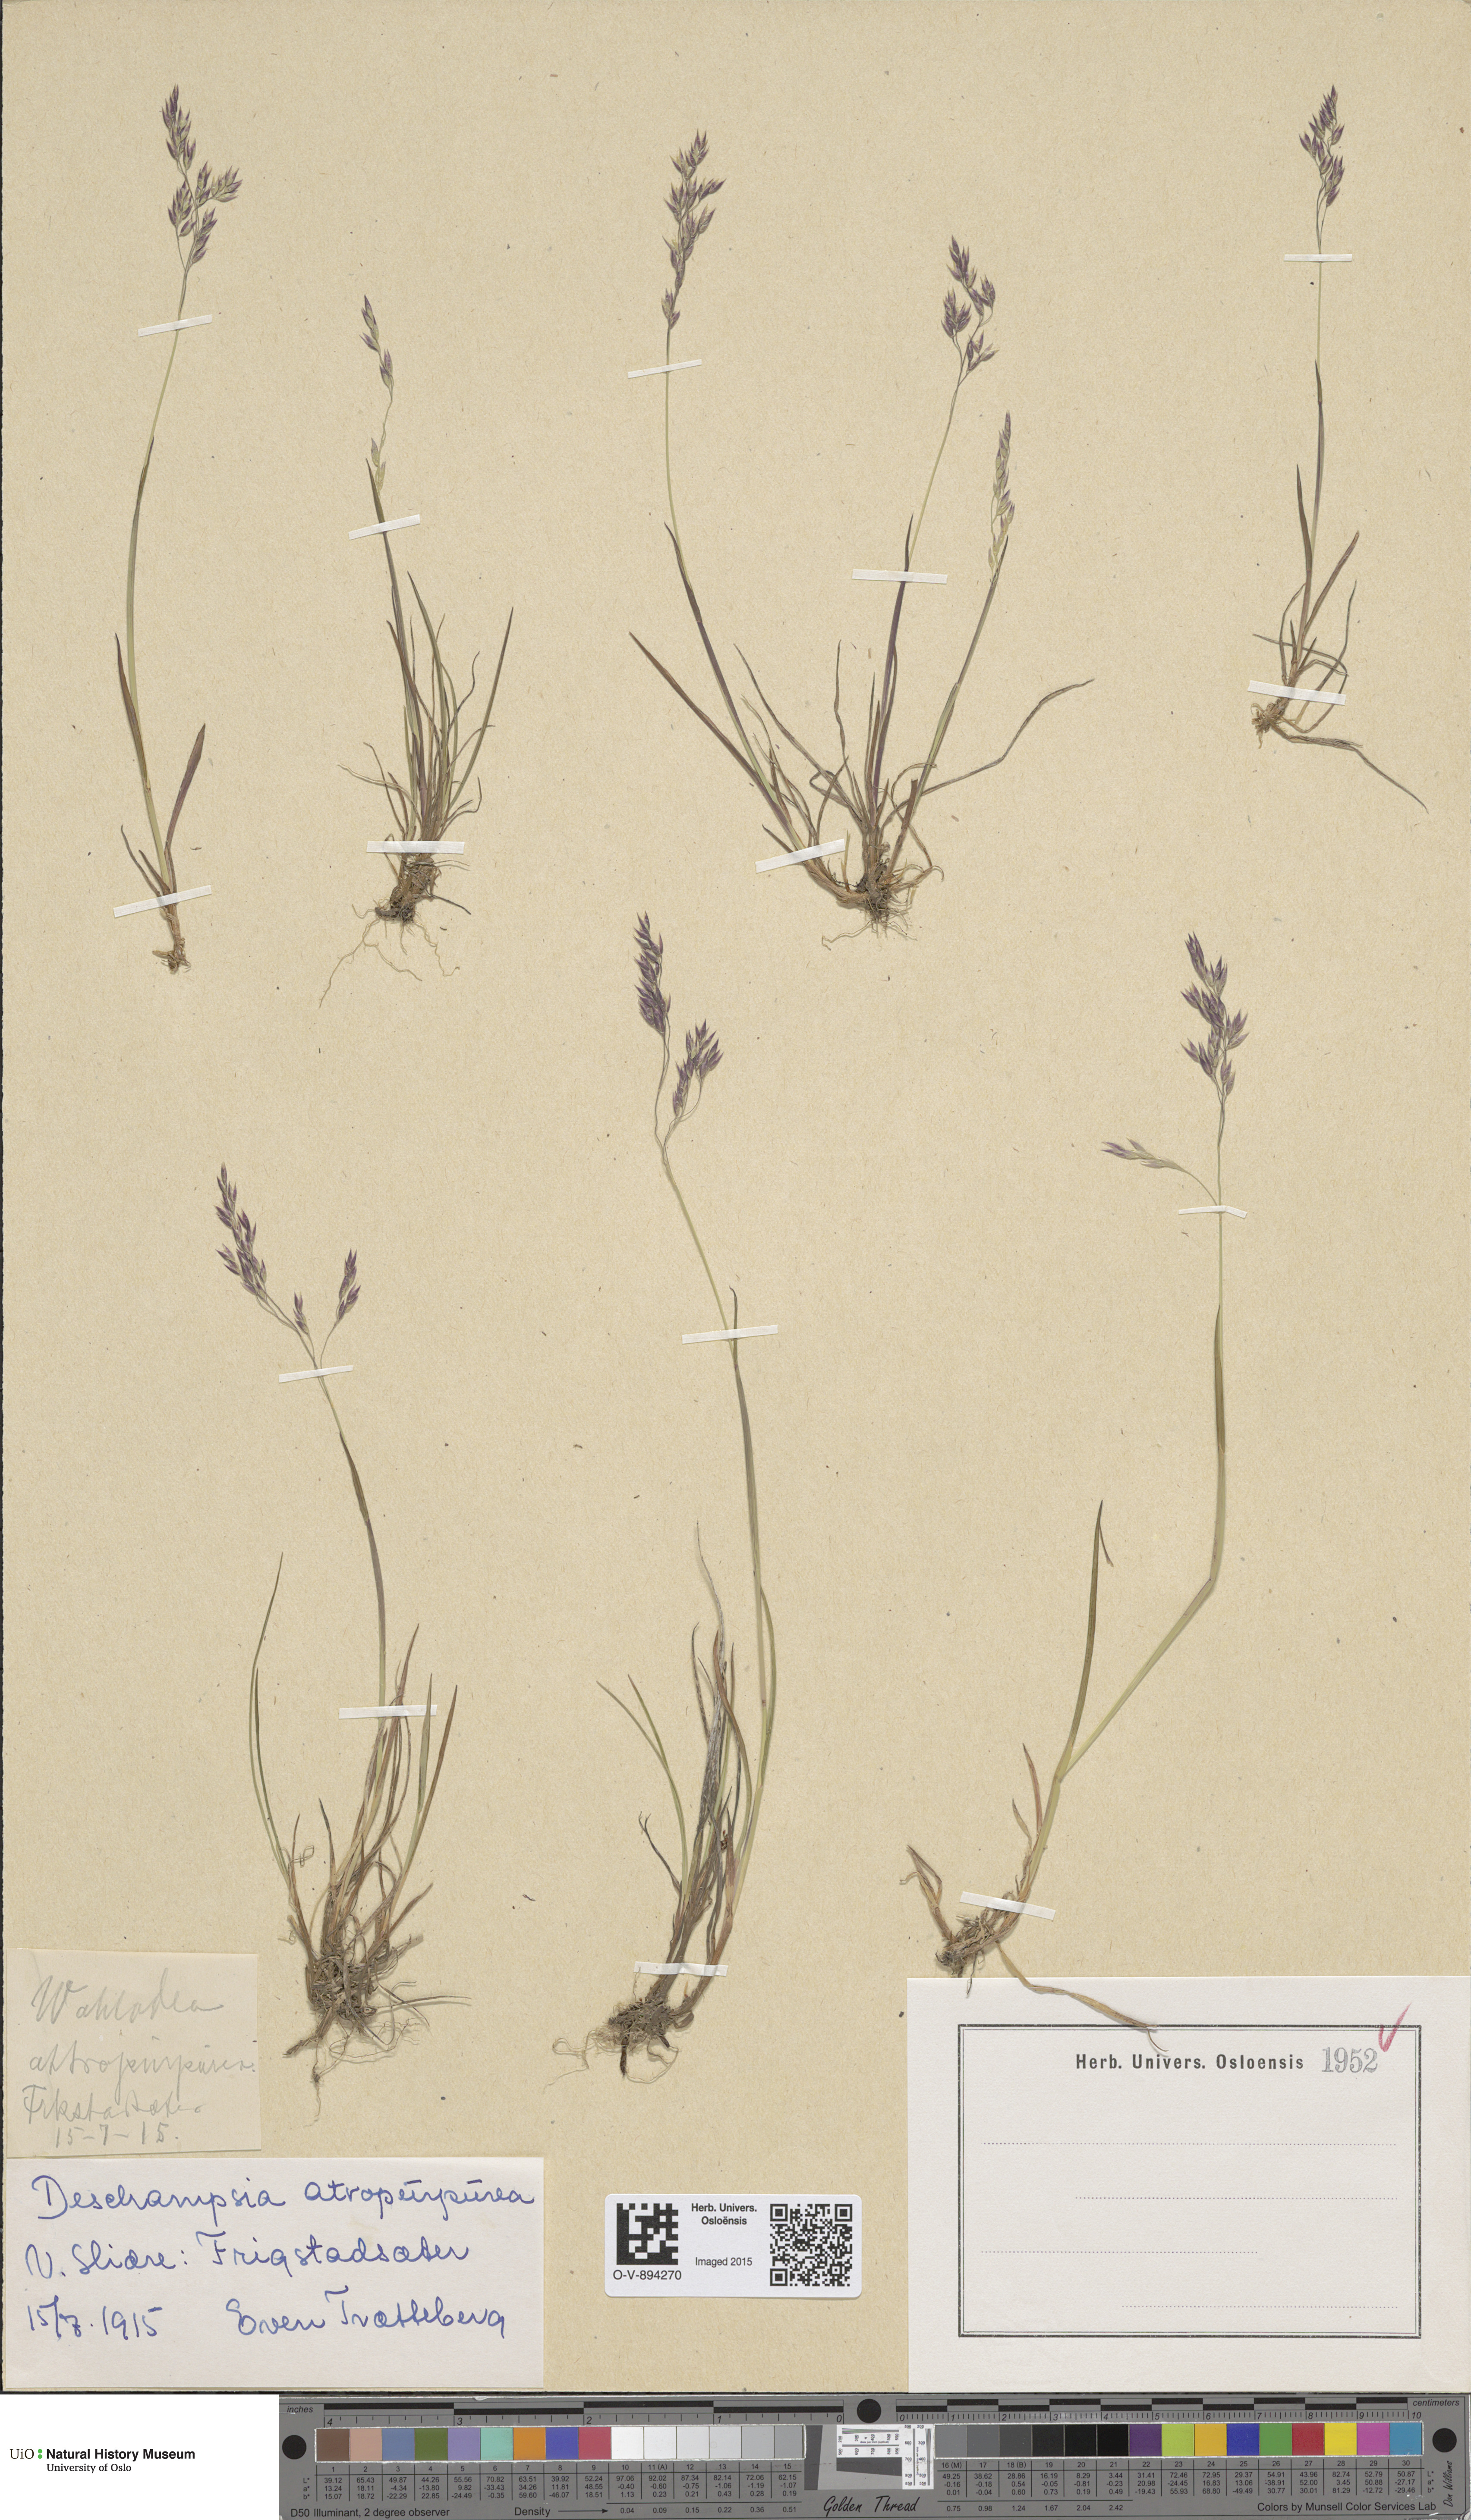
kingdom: Plantae
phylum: Tracheophyta
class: Liliopsida
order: Poales
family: Poaceae
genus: Vahlodea
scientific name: Vahlodea atropurpurea
